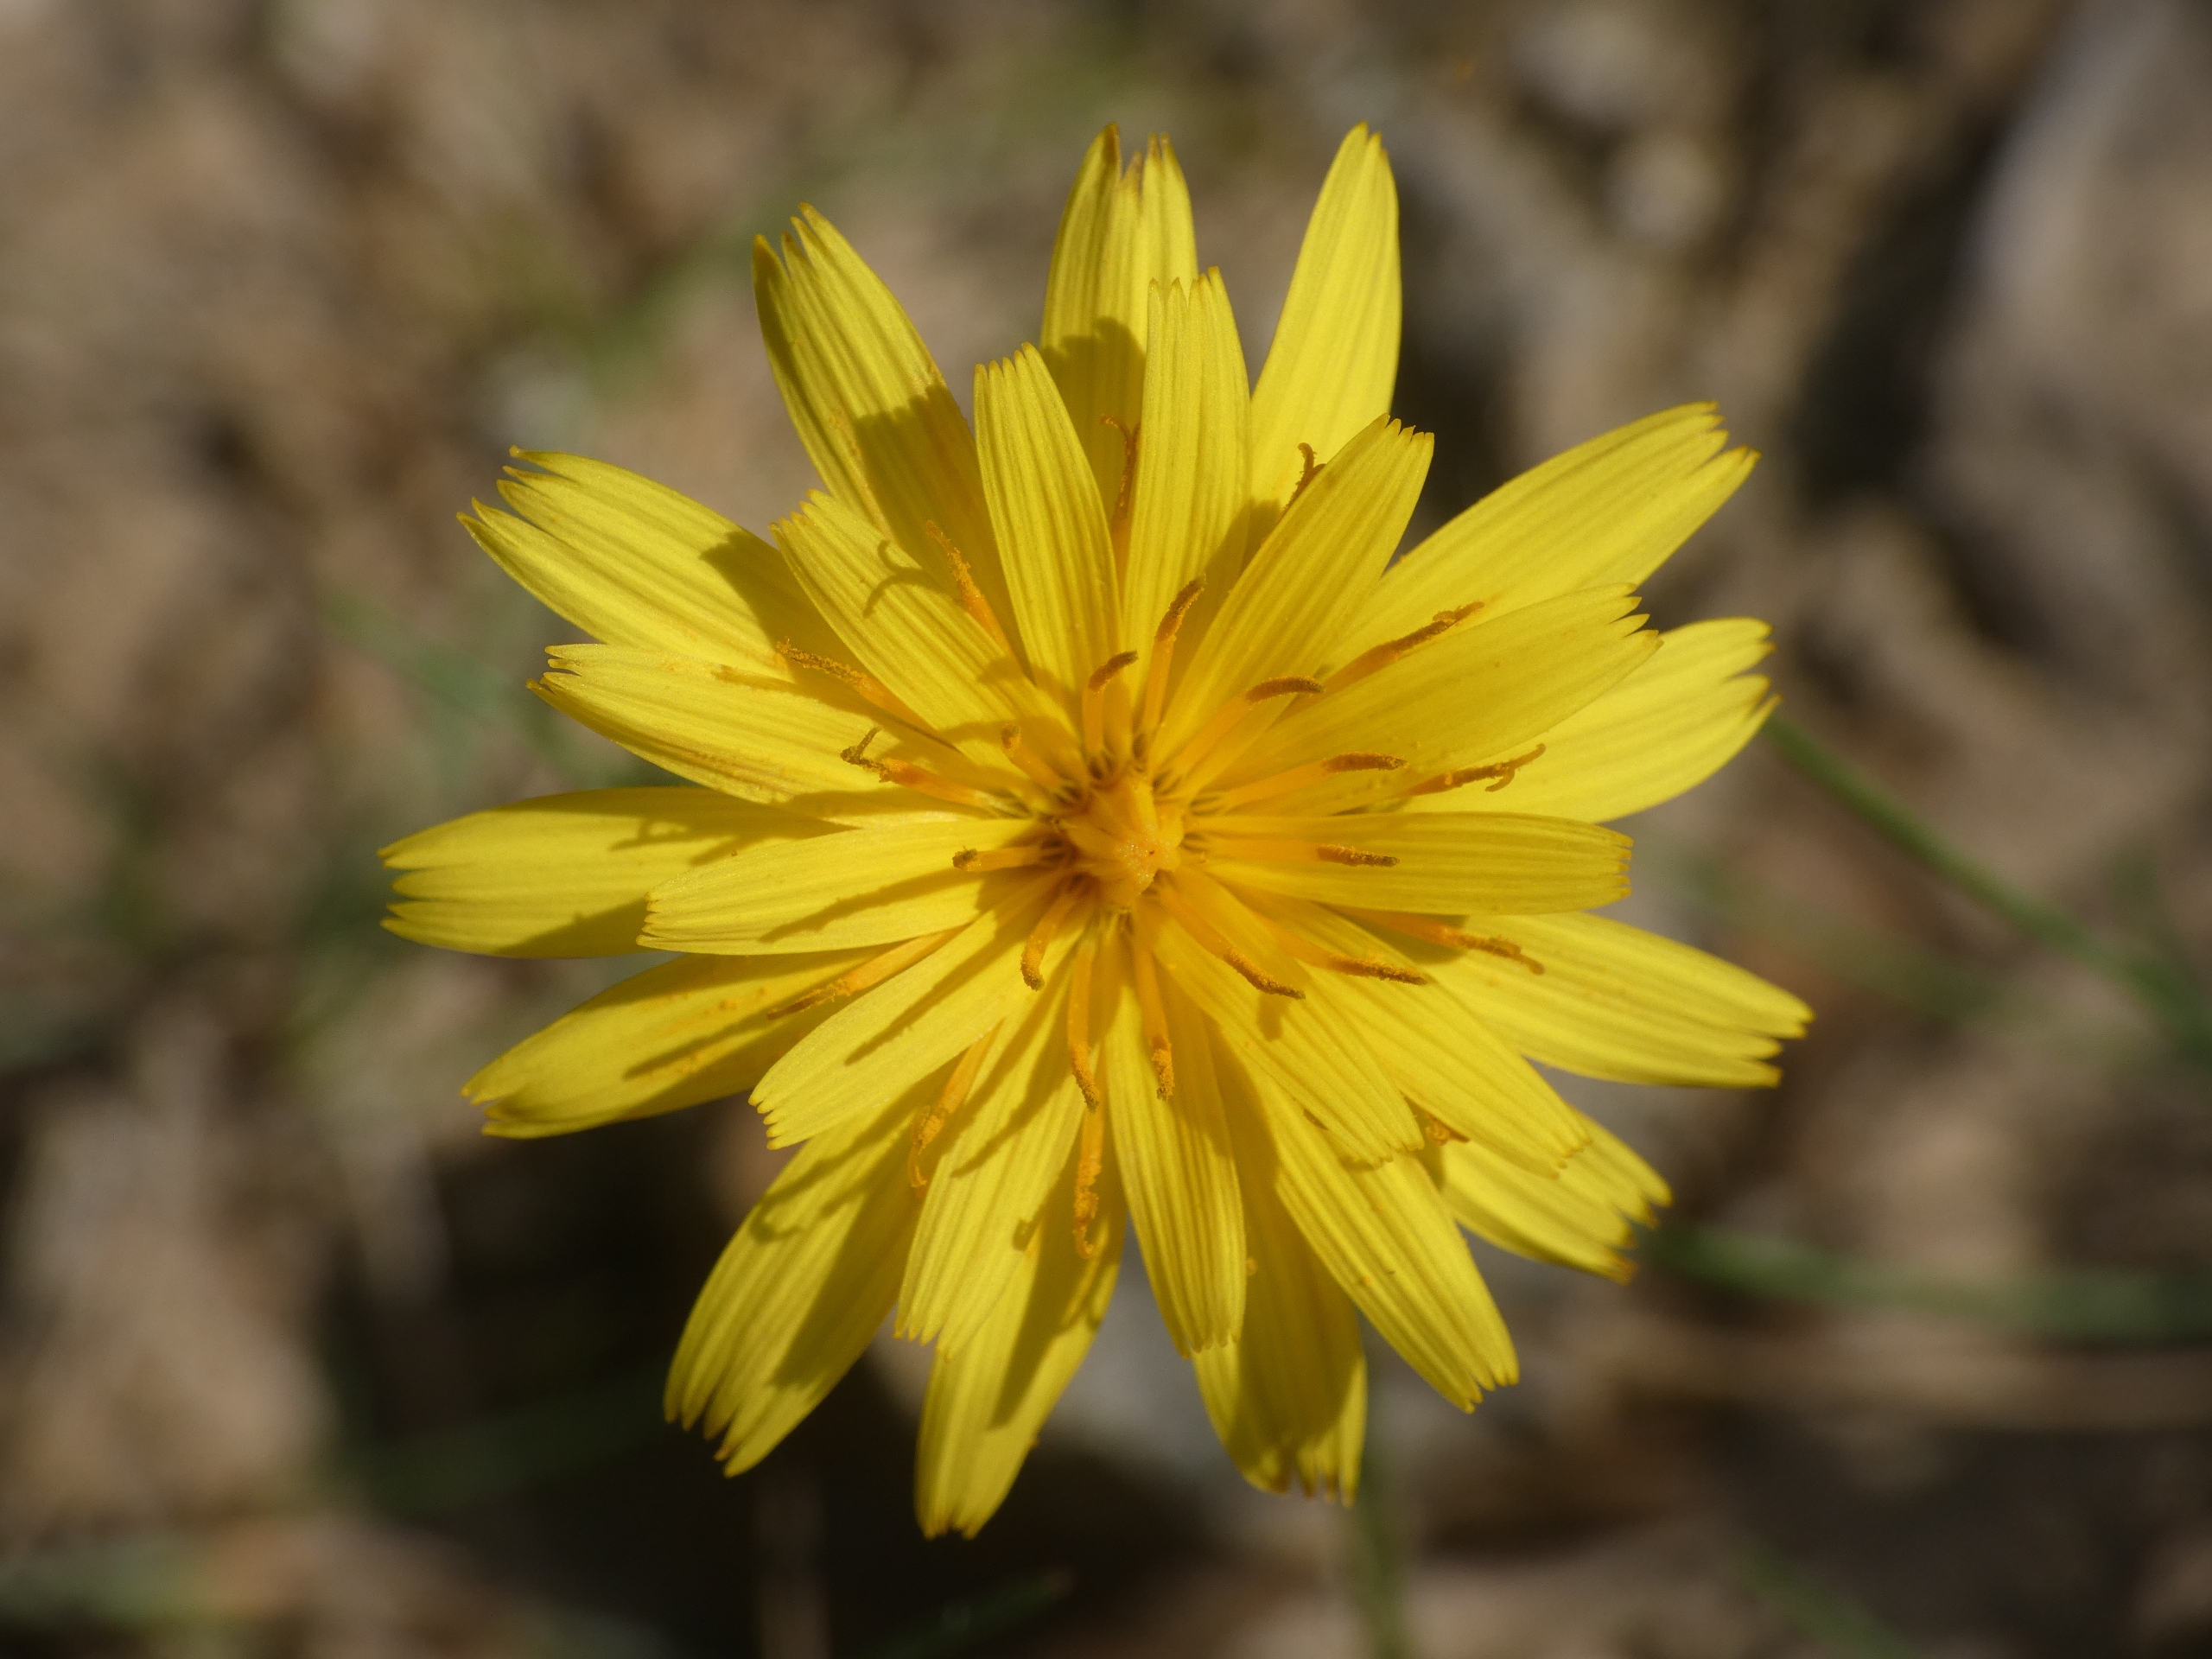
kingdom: Plantae
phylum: Tracheophyta
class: Magnoliopsida
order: Asterales
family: Asteraceae
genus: Scorzoneroides
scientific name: Scorzoneroides autumnalis
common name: Høst-borst
